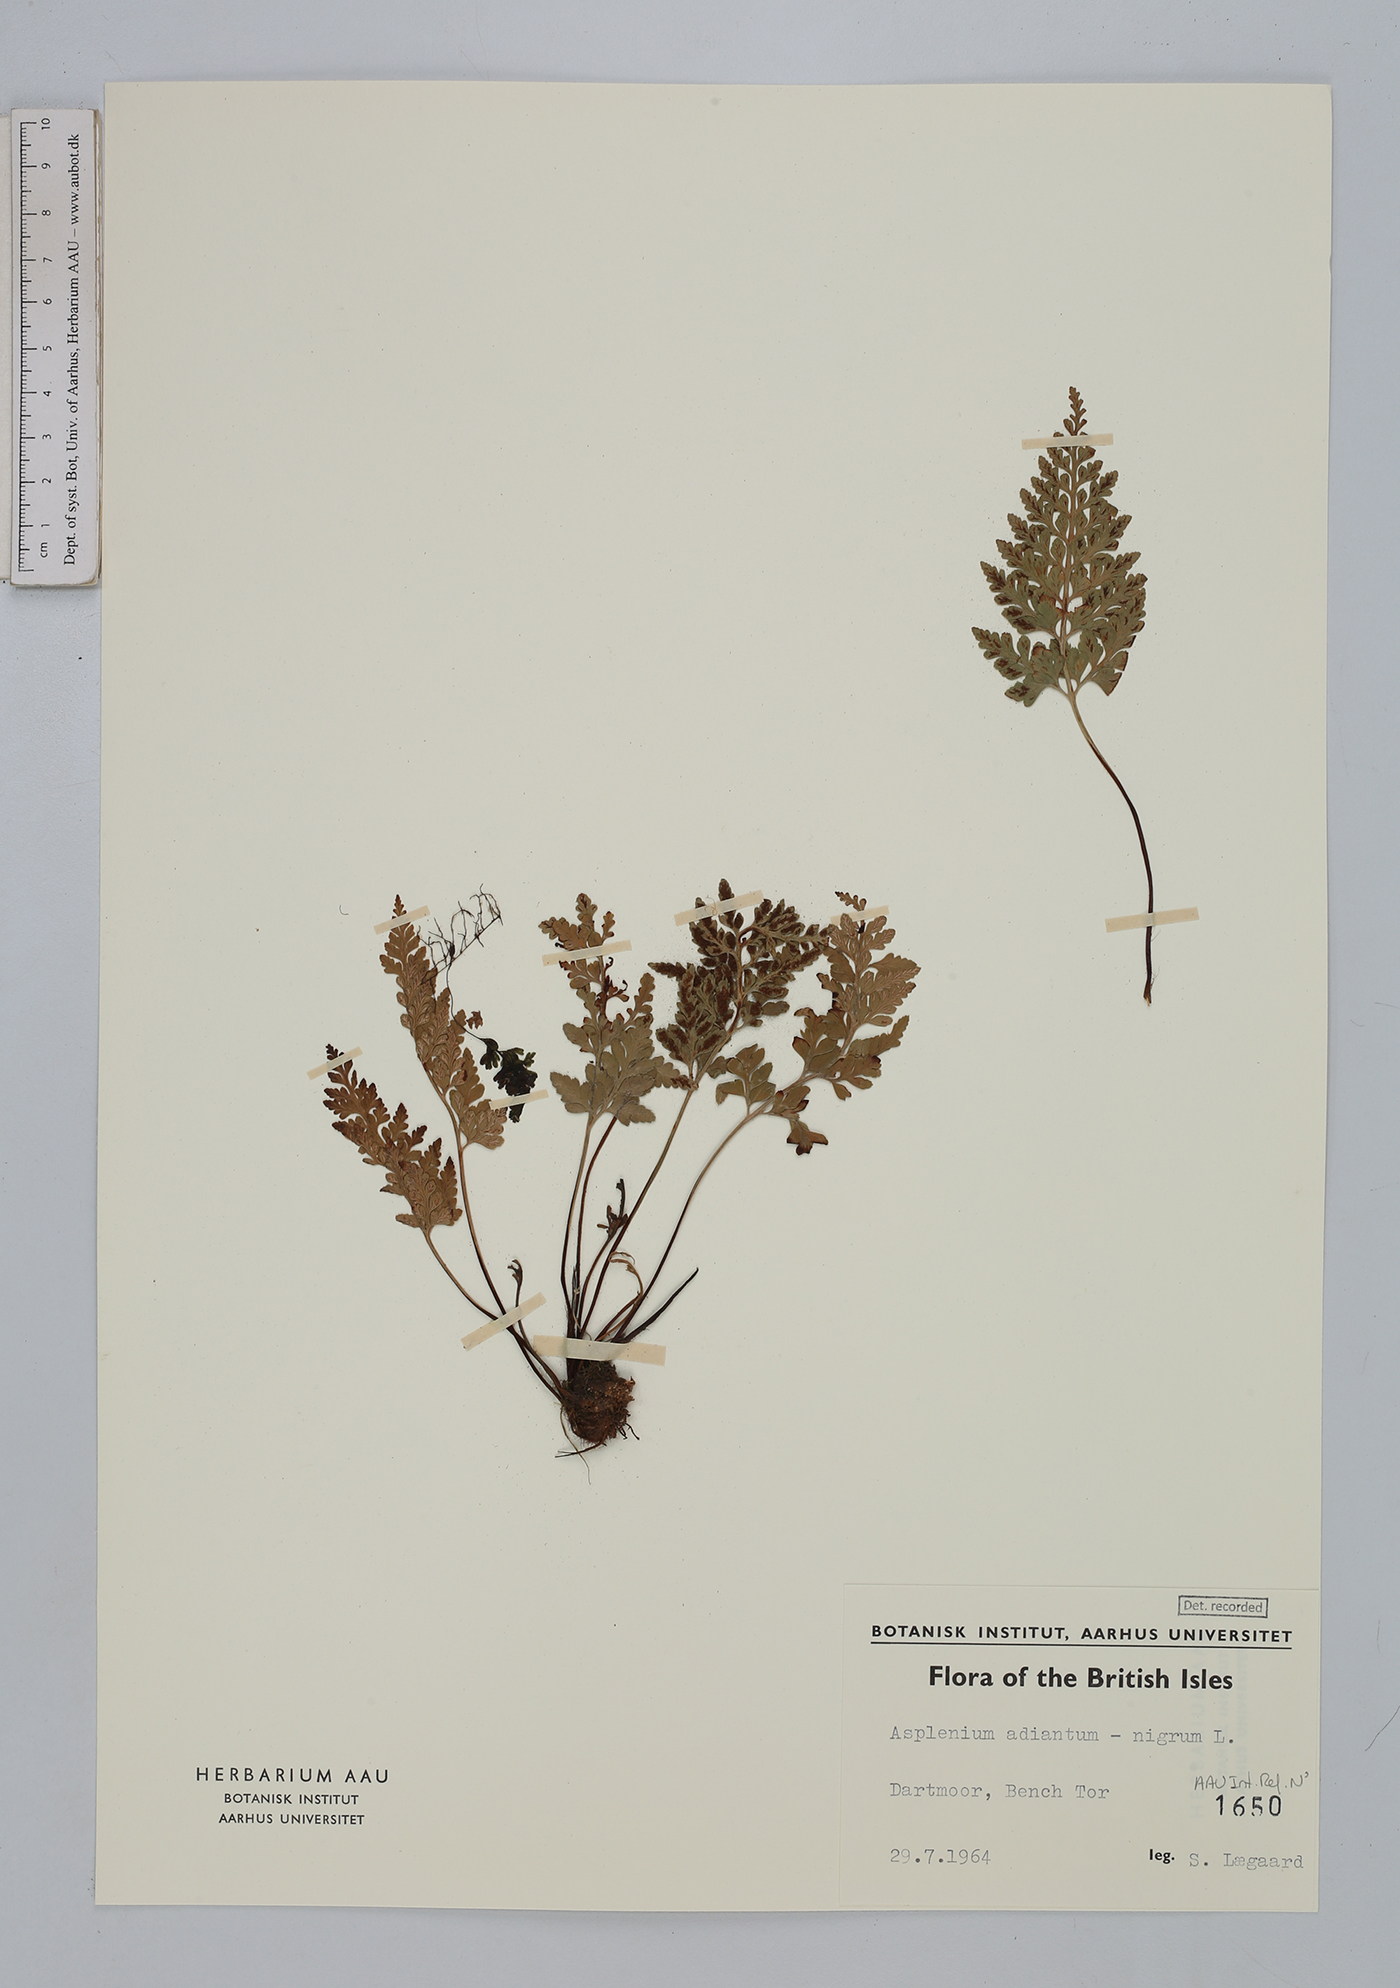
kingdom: Plantae
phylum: Tracheophyta
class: Polypodiopsida
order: Polypodiales
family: Aspleniaceae
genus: Asplenium
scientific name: Asplenium adiantum-nigrum
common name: Black spleenwort
